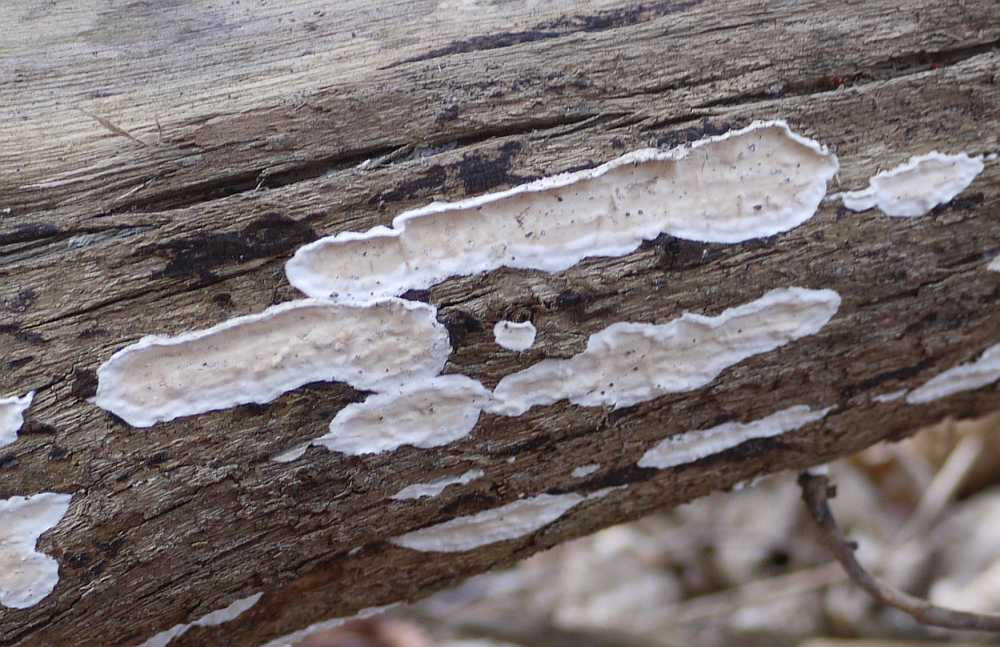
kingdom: Fungi
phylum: Basidiomycota
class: Agaricomycetes
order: Polyporales
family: Irpicaceae
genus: Byssomerulius
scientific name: Byssomerulius corium
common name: læder-åresvamp
